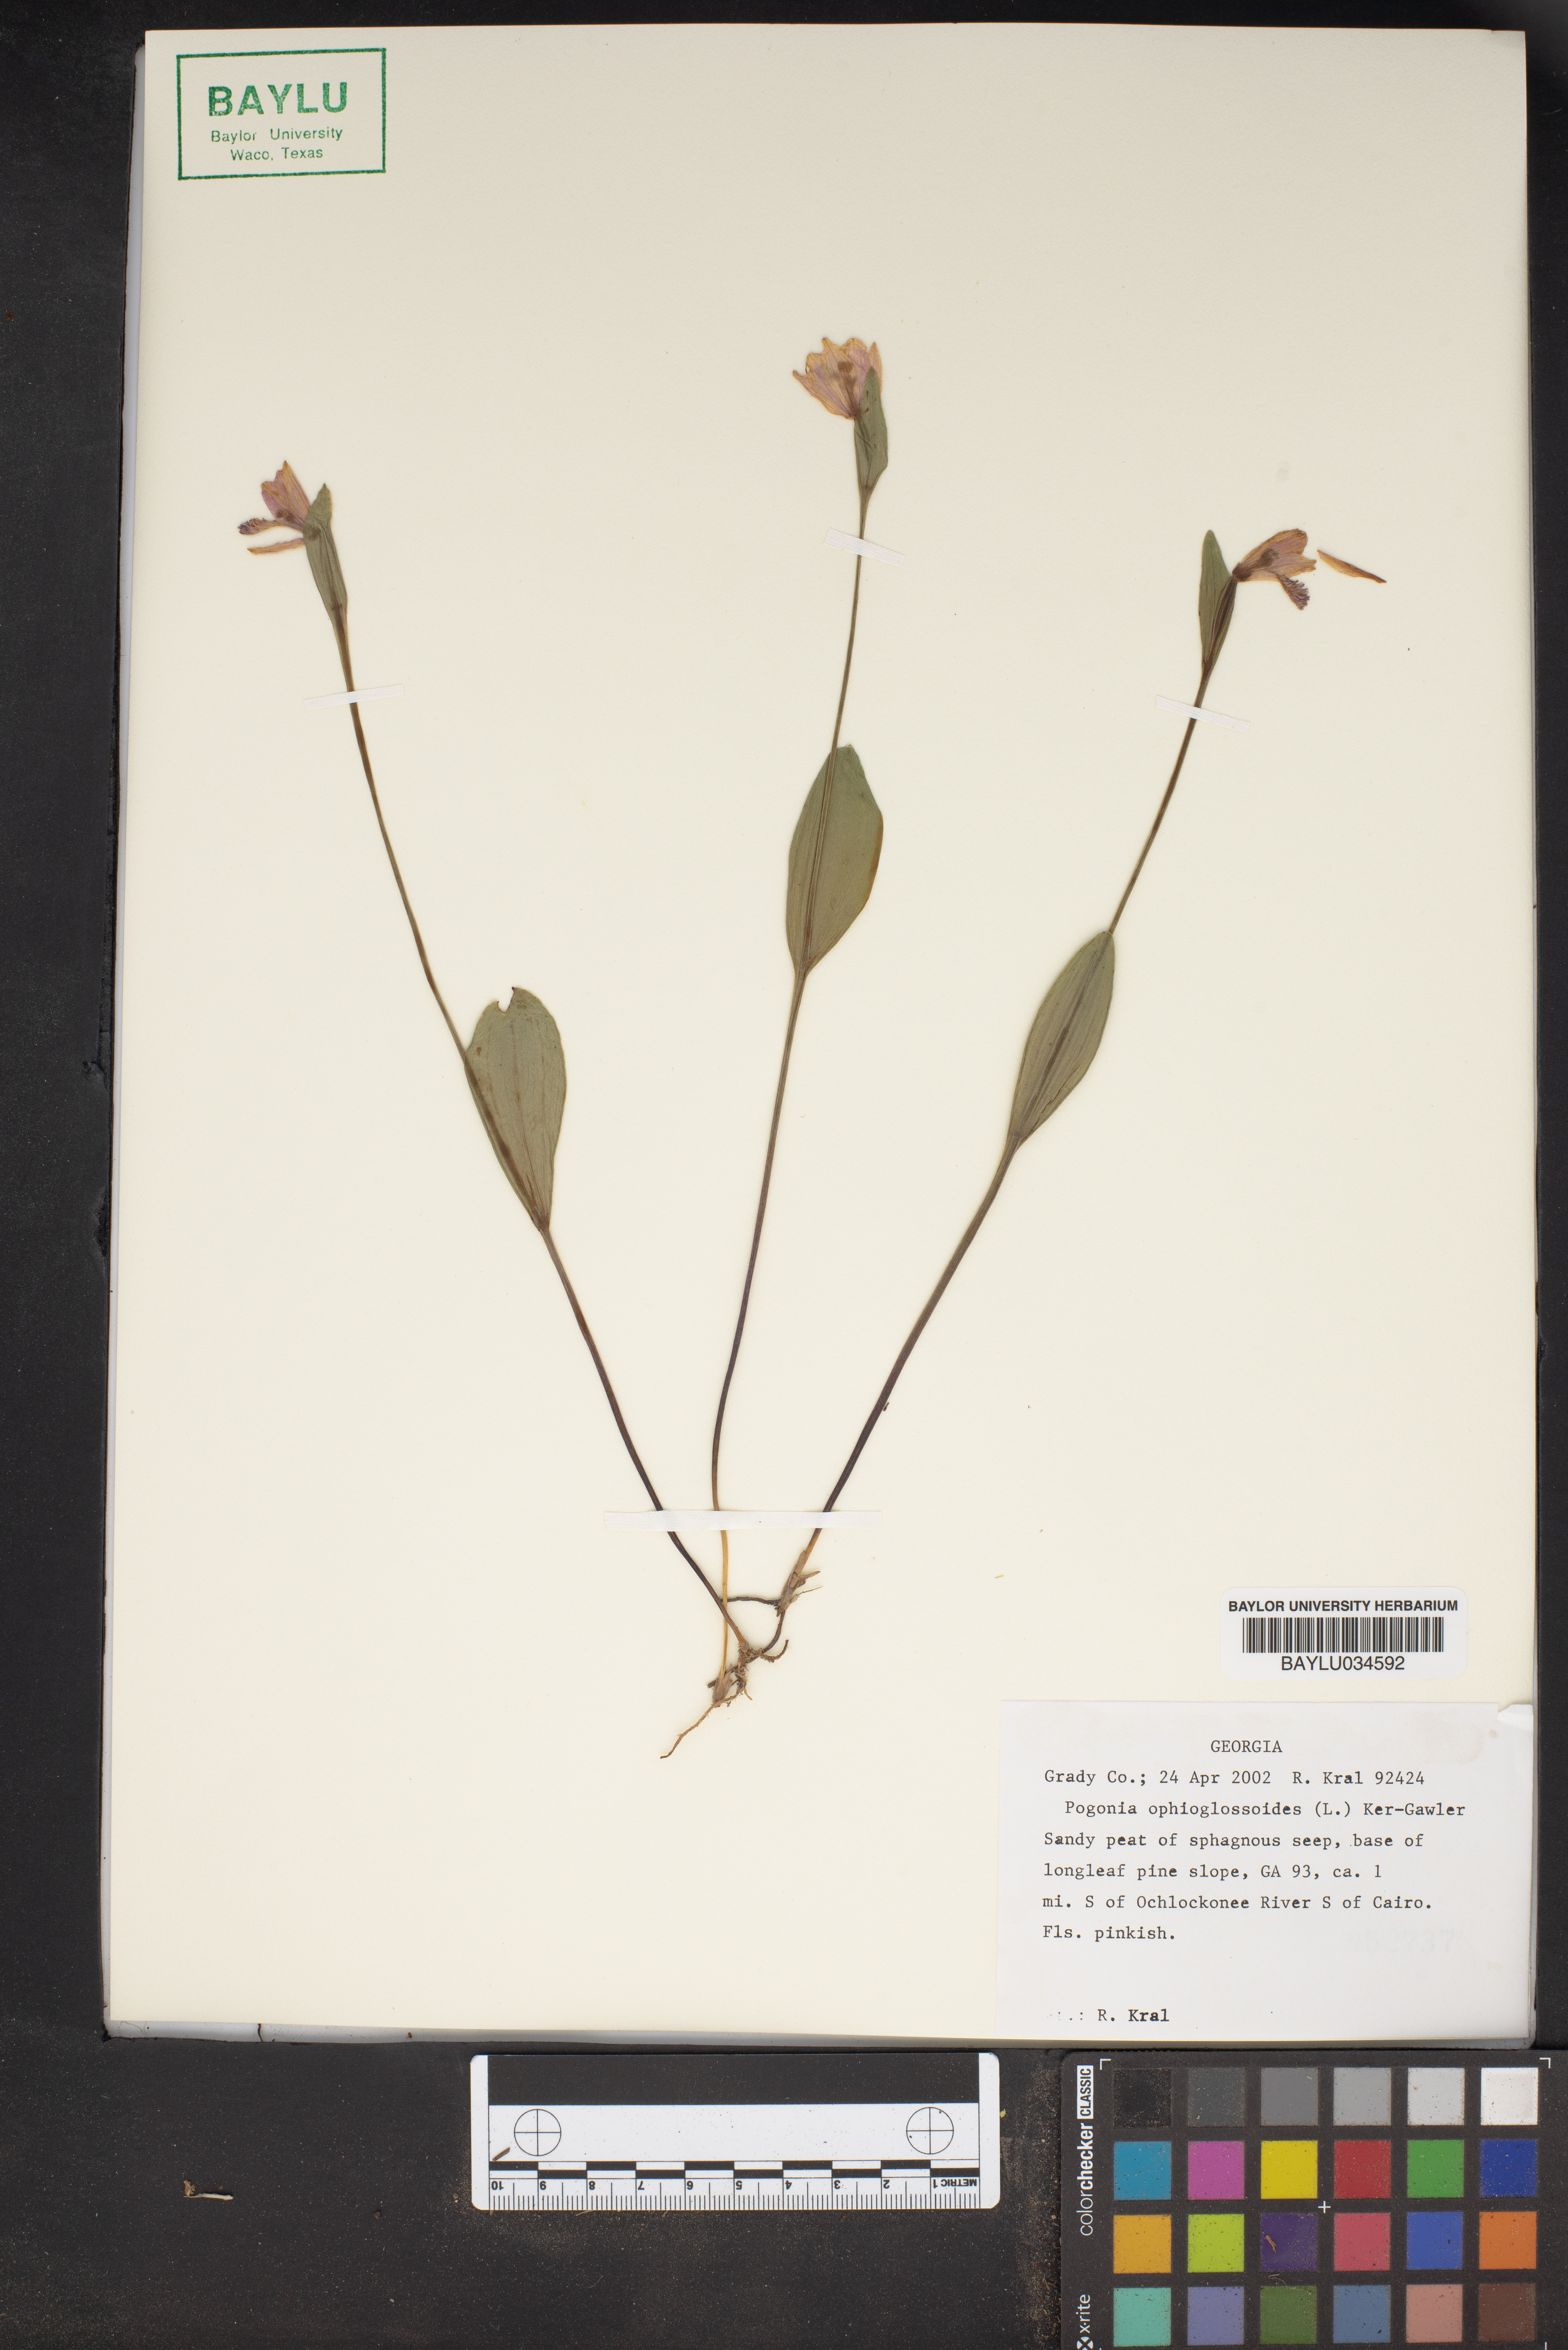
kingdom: Plantae
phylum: Tracheophyta
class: Liliopsida
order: Asparagales
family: Orchidaceae
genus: Pogonia
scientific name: Pogonia ophioglossoides
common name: Rose pogonia
